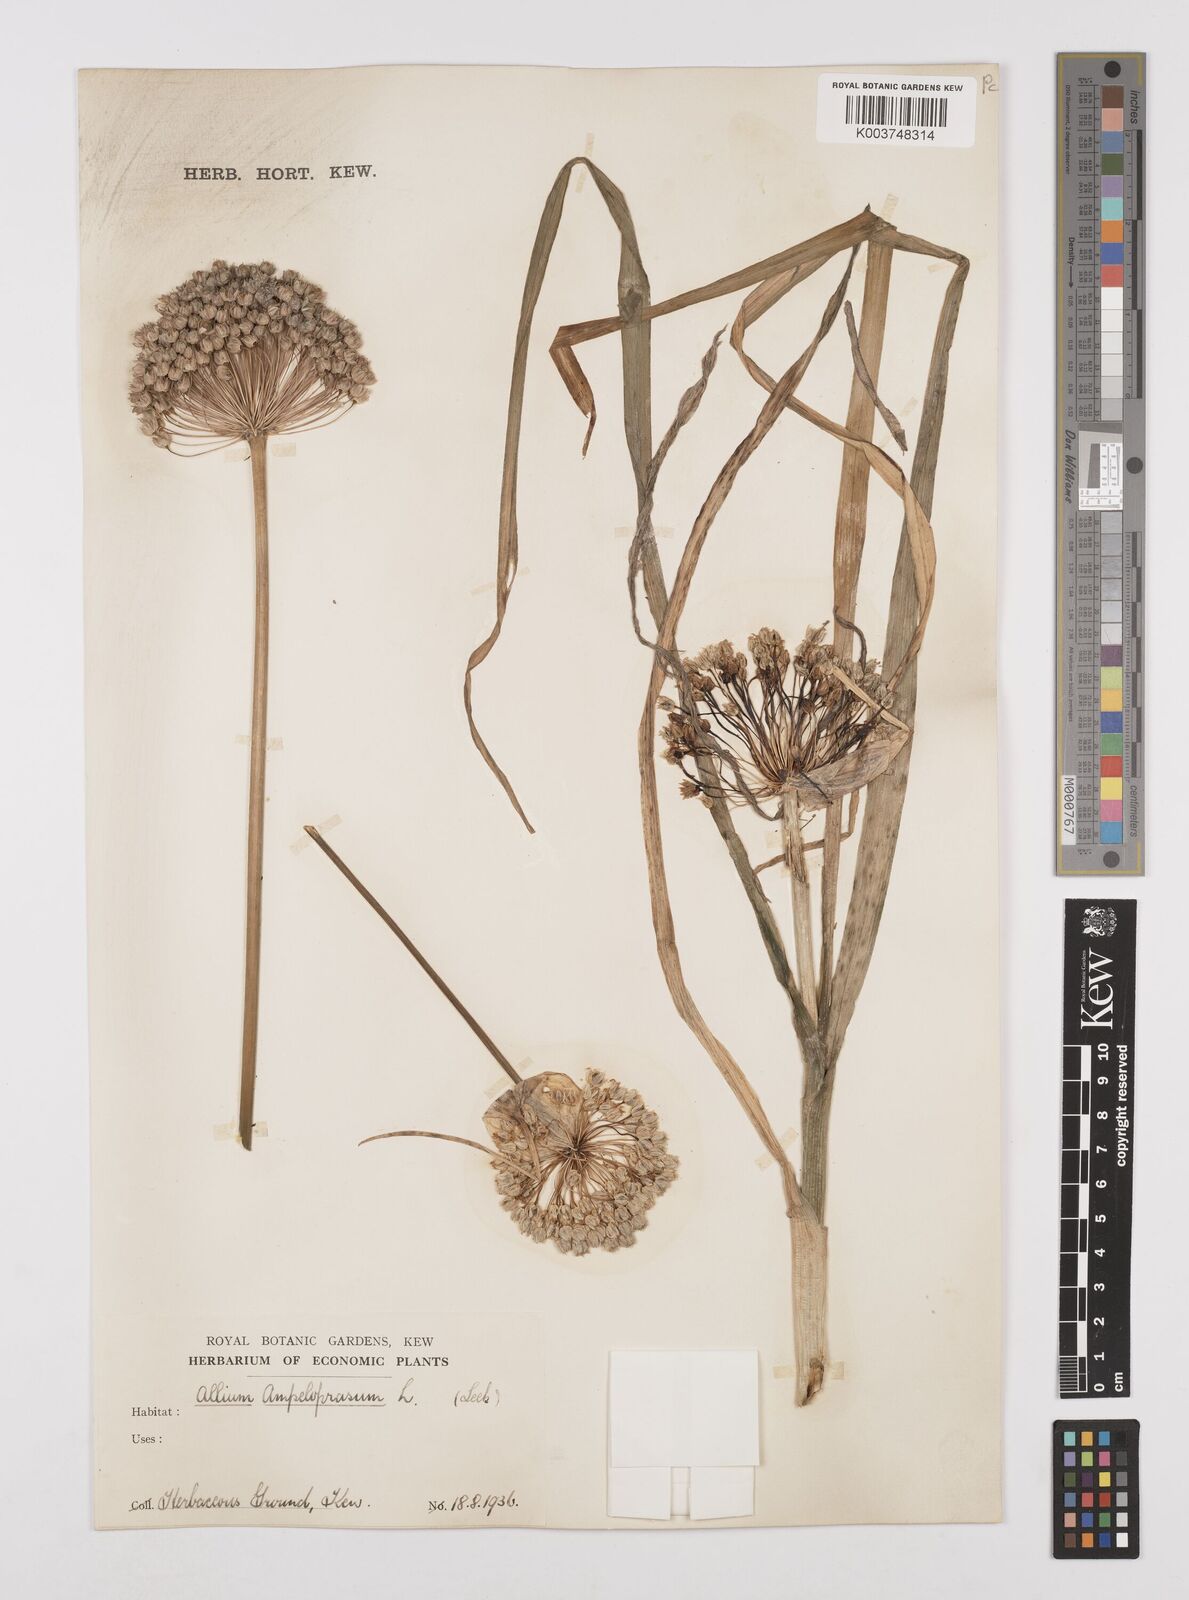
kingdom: Plantae
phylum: Tracheophyta
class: Liliopsida
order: Asparagales
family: Amaryllidaceae
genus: Allium
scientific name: Allium
